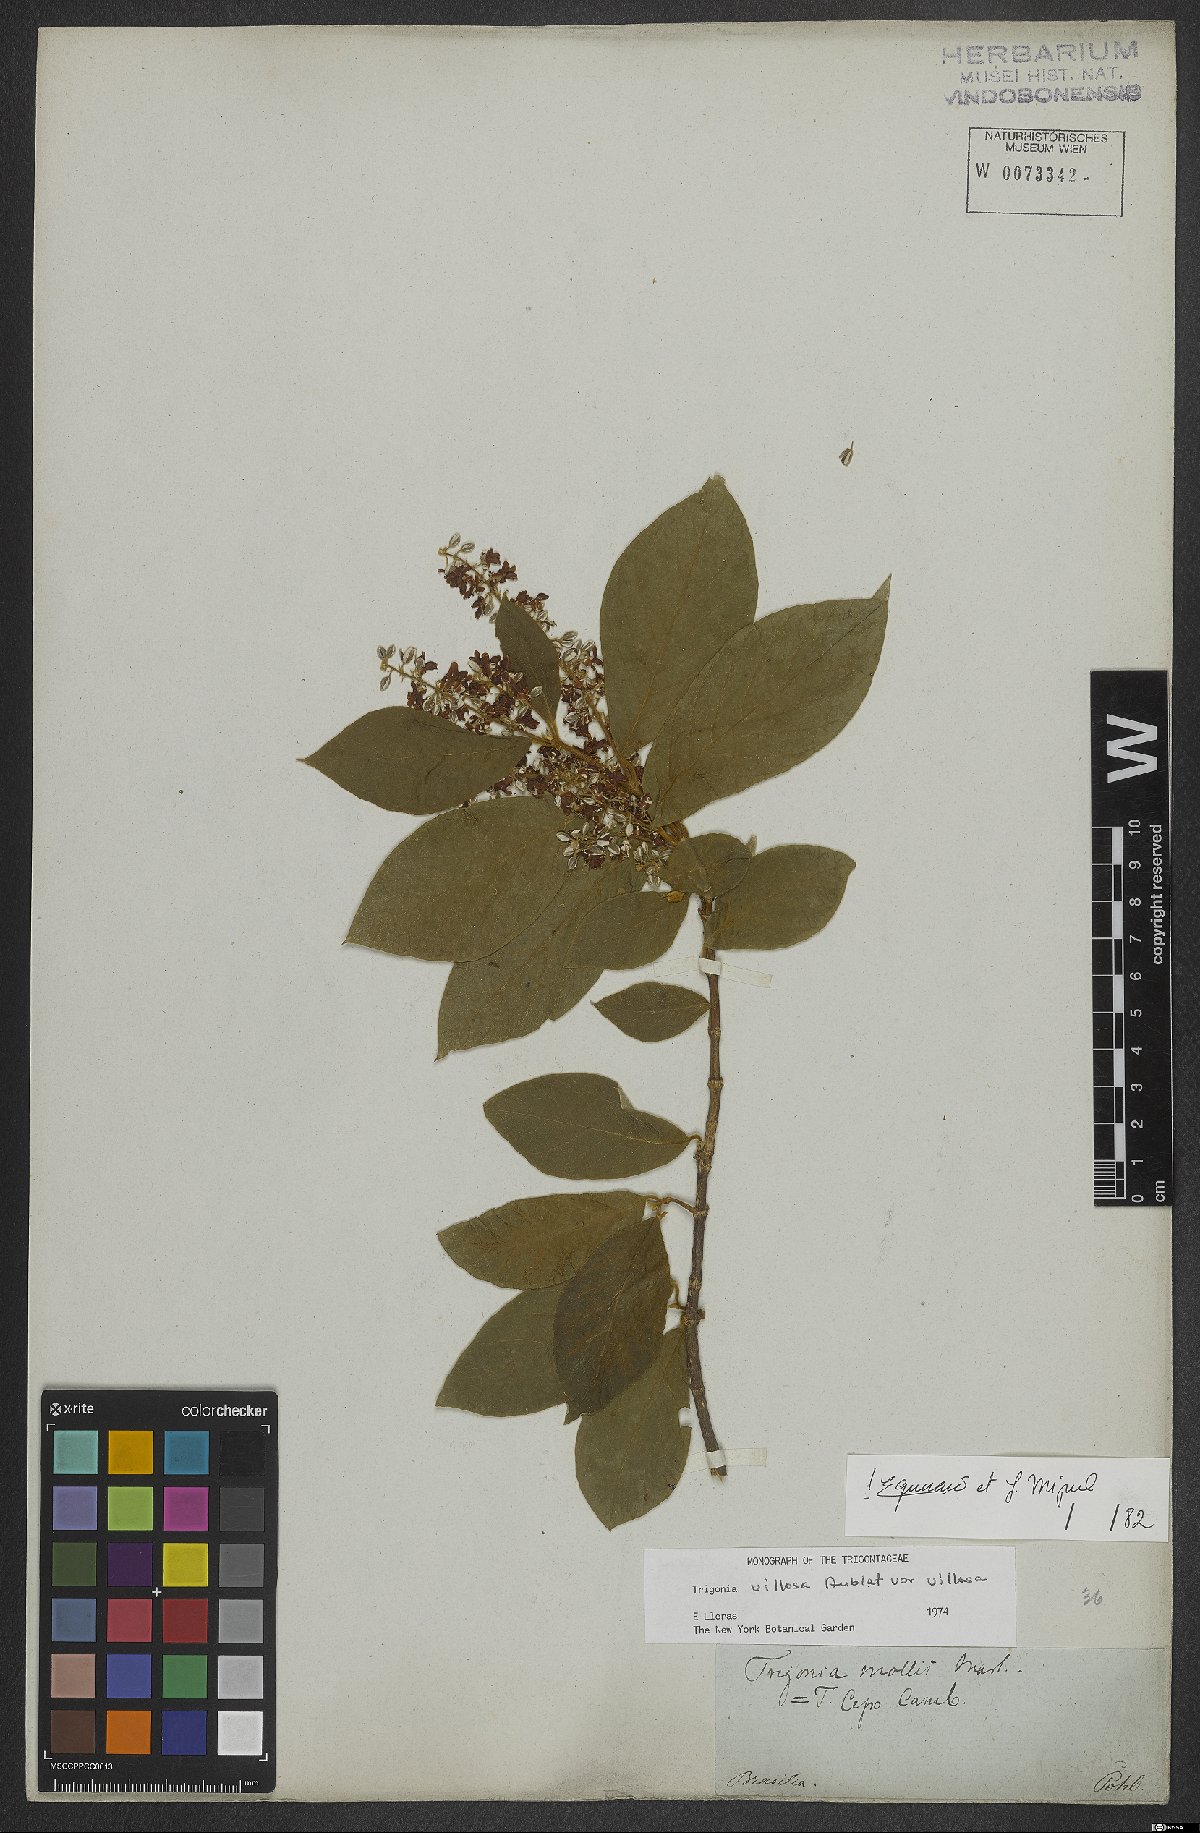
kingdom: Plantae
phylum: Tracheophyta
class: Magnoliopsida
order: Malpighiales
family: Trigoniaceae
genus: Trigonia
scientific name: Trigonia villosa
